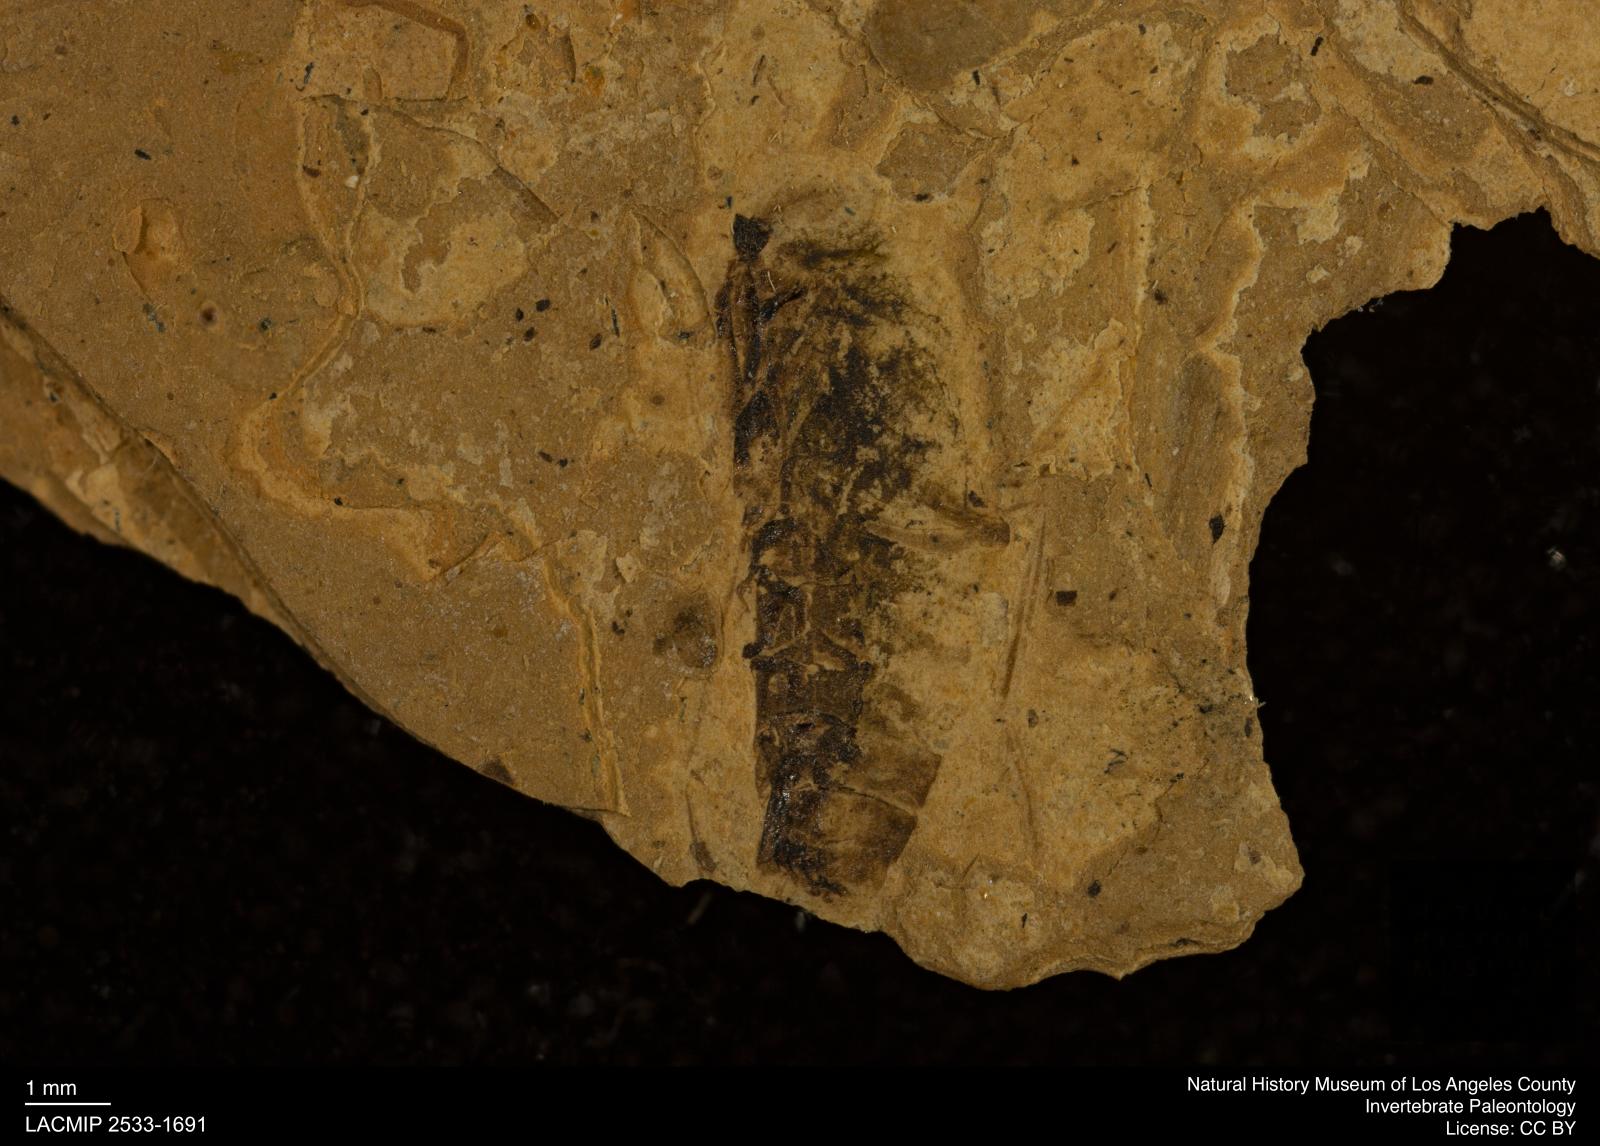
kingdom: Animalia
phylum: Arthropoda
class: Insecta
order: Hemiptera
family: Notonectidae
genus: Notonecta
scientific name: Notonecta
